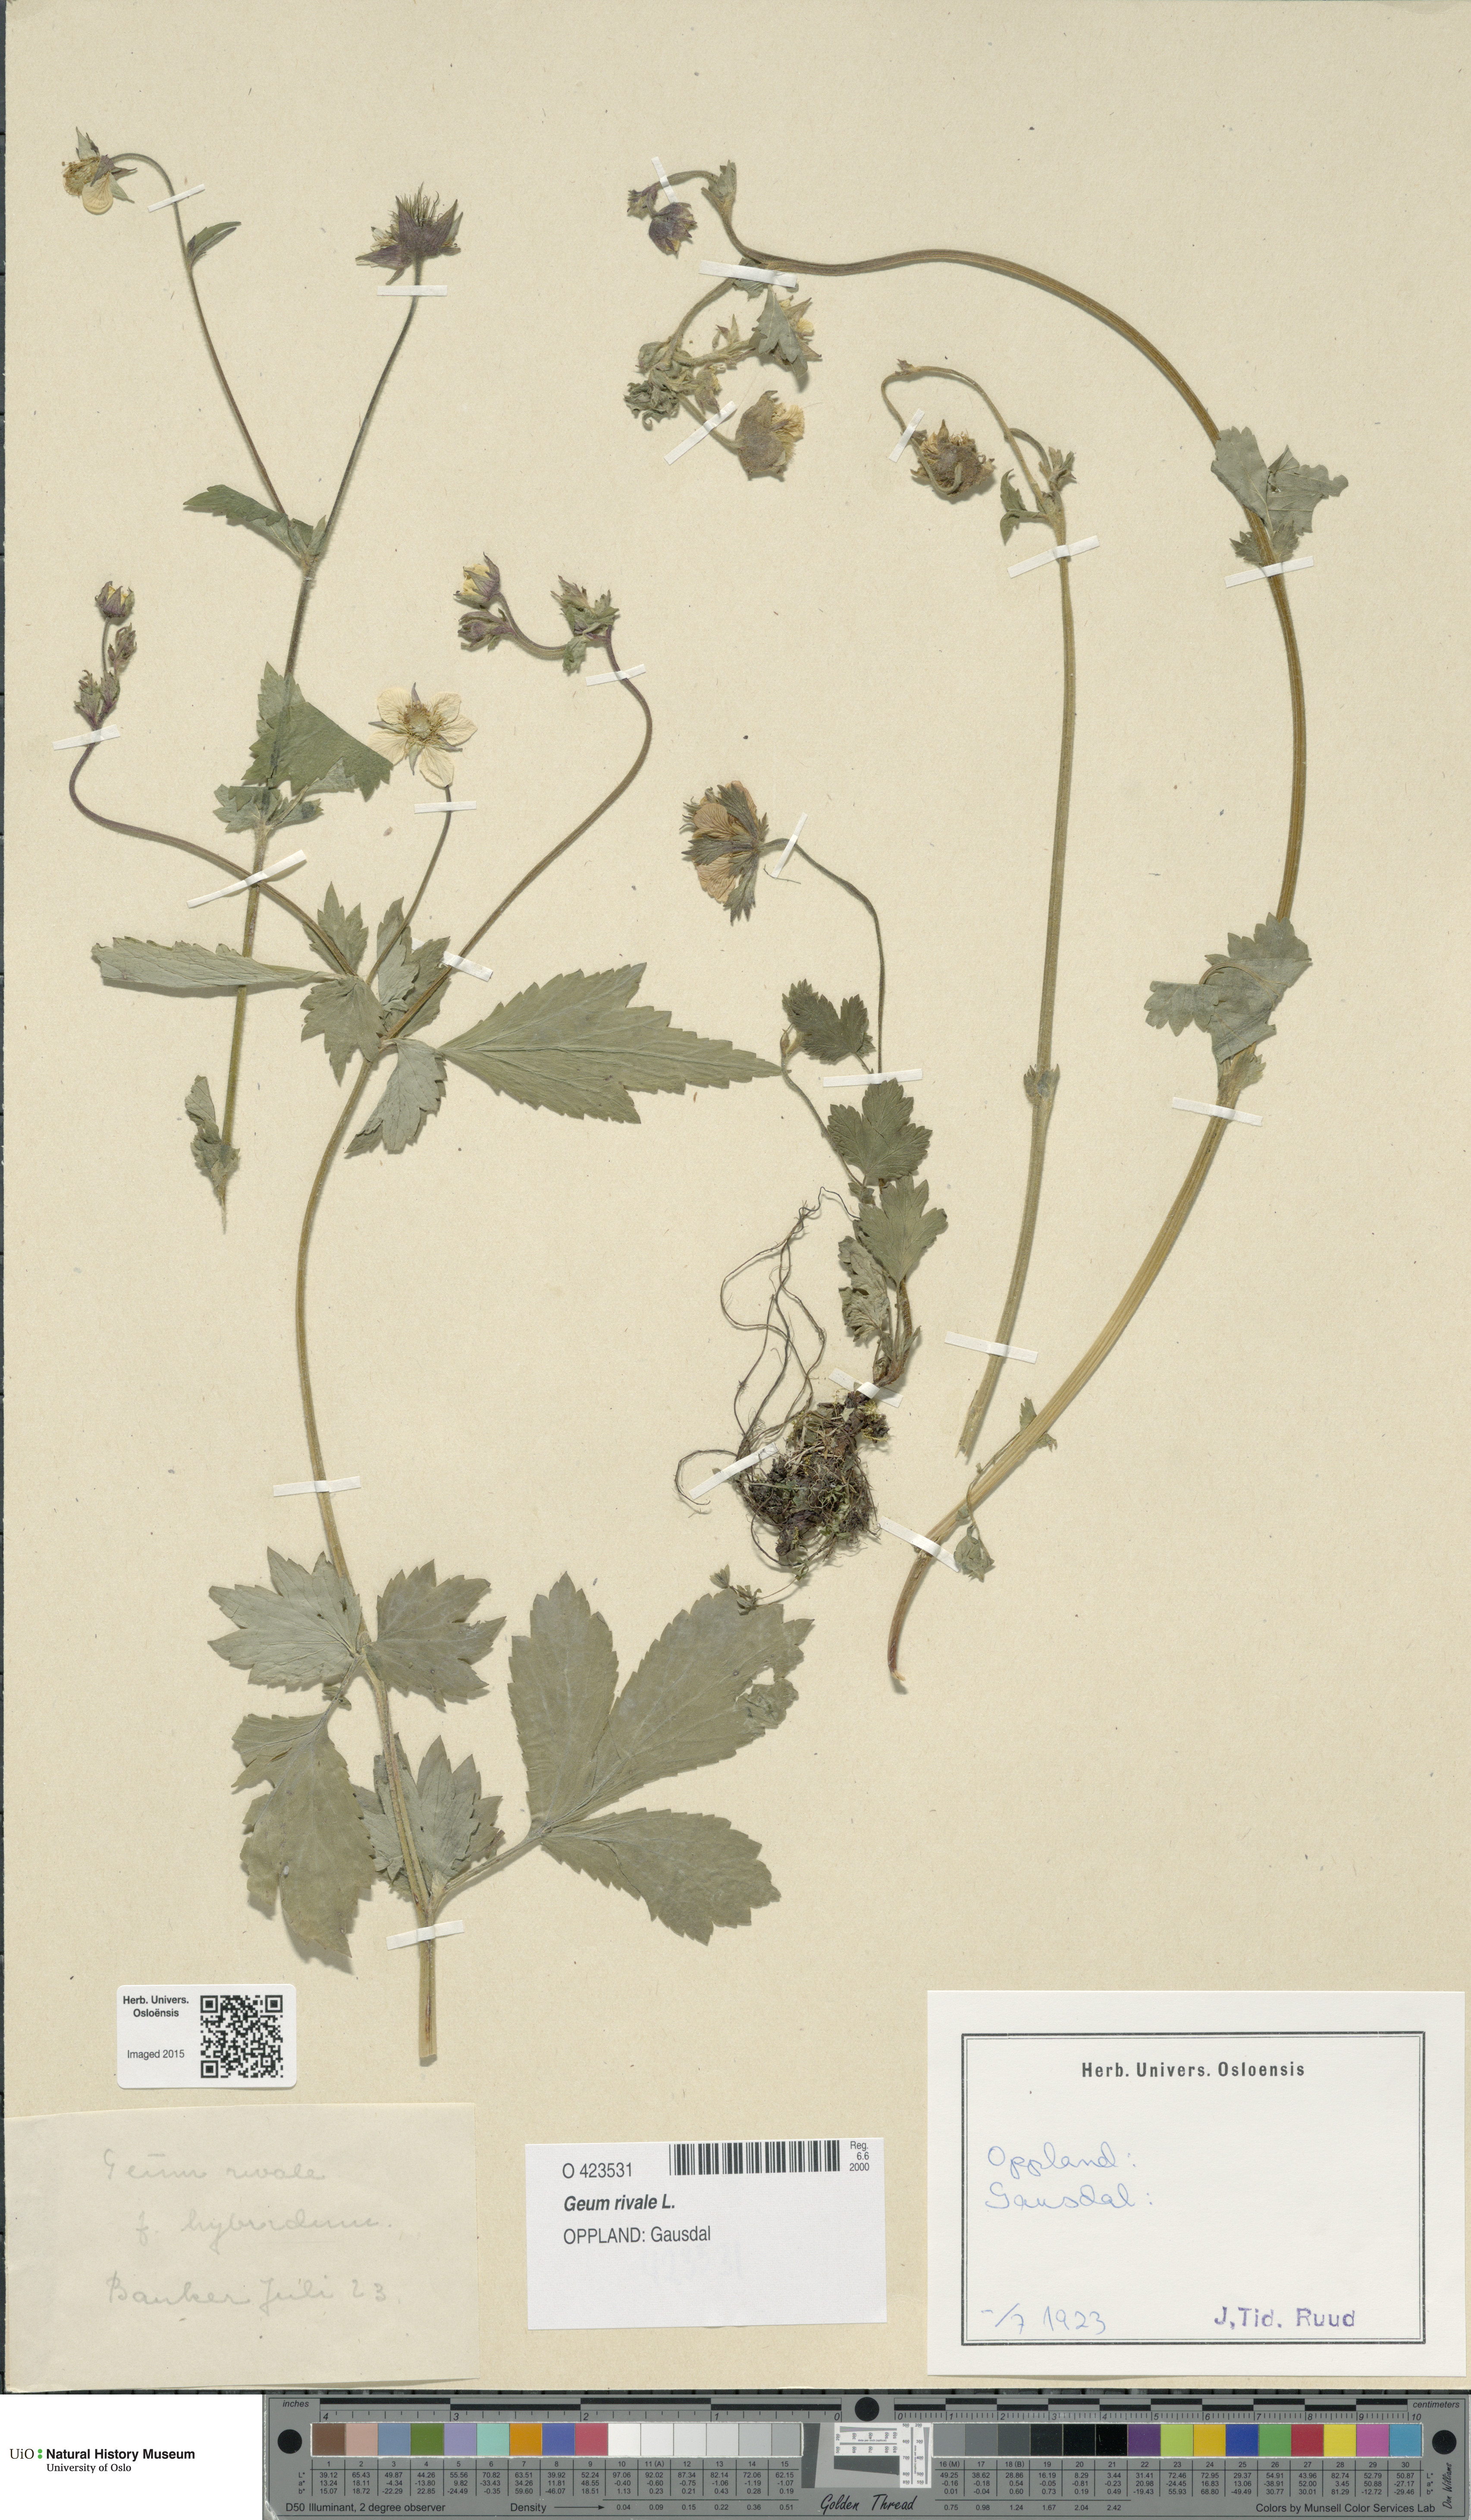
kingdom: Plantae
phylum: Tracheophyta
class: Magnoliopsida
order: Rosales
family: Rosaceae
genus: Geum
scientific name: Geum rivale
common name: Water avens
